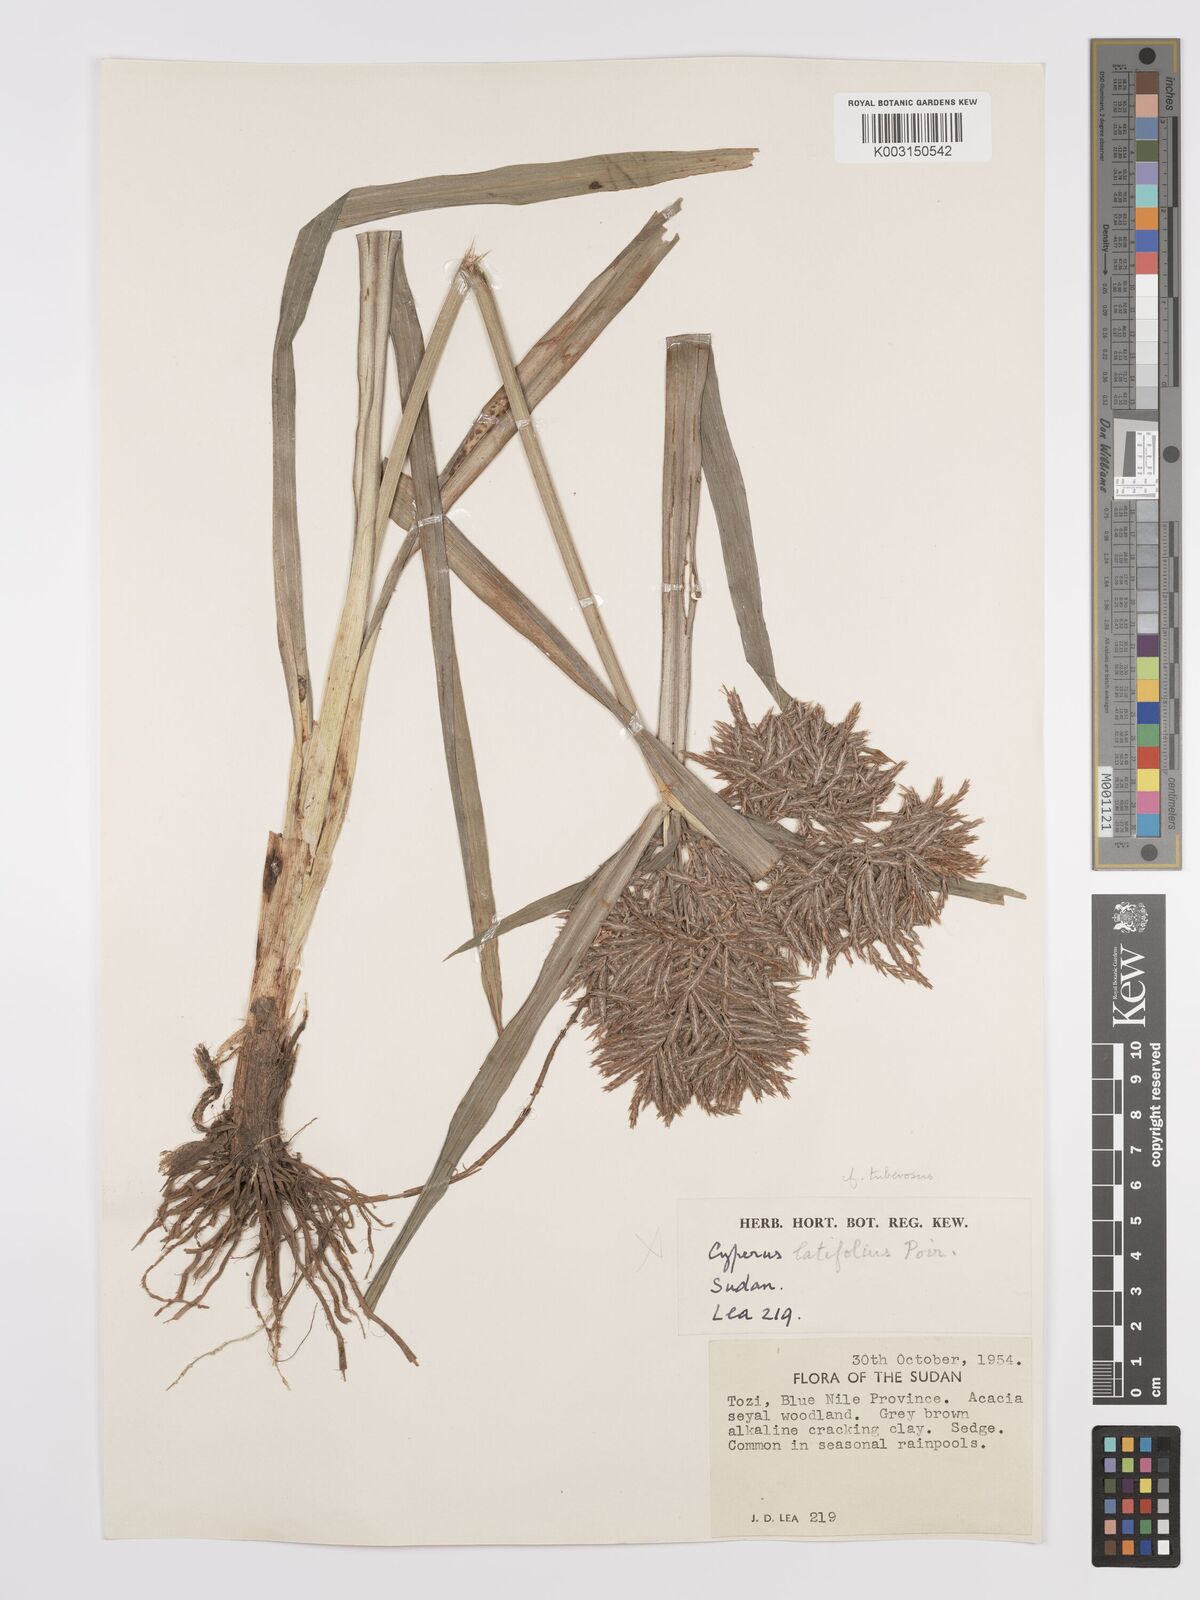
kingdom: Plantae
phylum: Tracheophyta
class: Liliopsida
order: Poales
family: Cyperaceae
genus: Cyperus
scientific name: Cyperus tuberosus
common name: Nut grass
